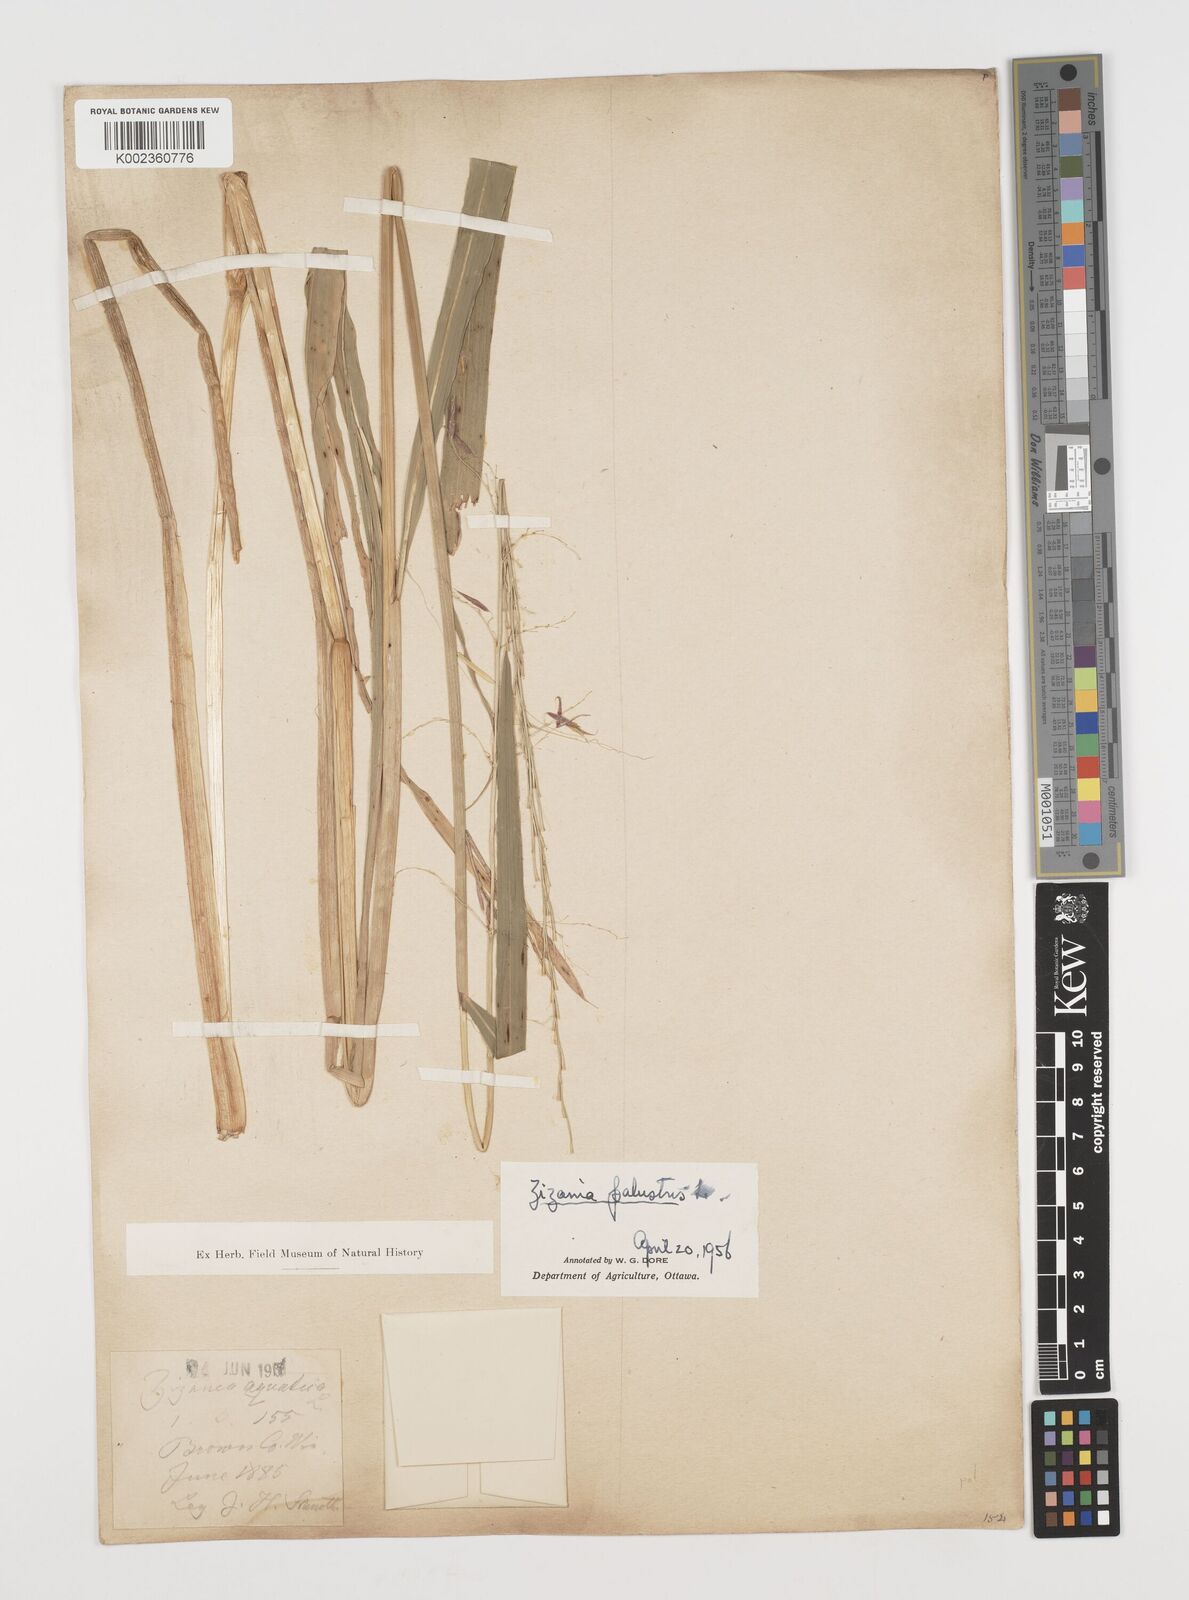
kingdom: Plantae
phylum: Tracheophyta
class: Liliopsida
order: Poales
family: Poaceae
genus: Zizania
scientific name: Zizania palustris
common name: Northern wild rice
